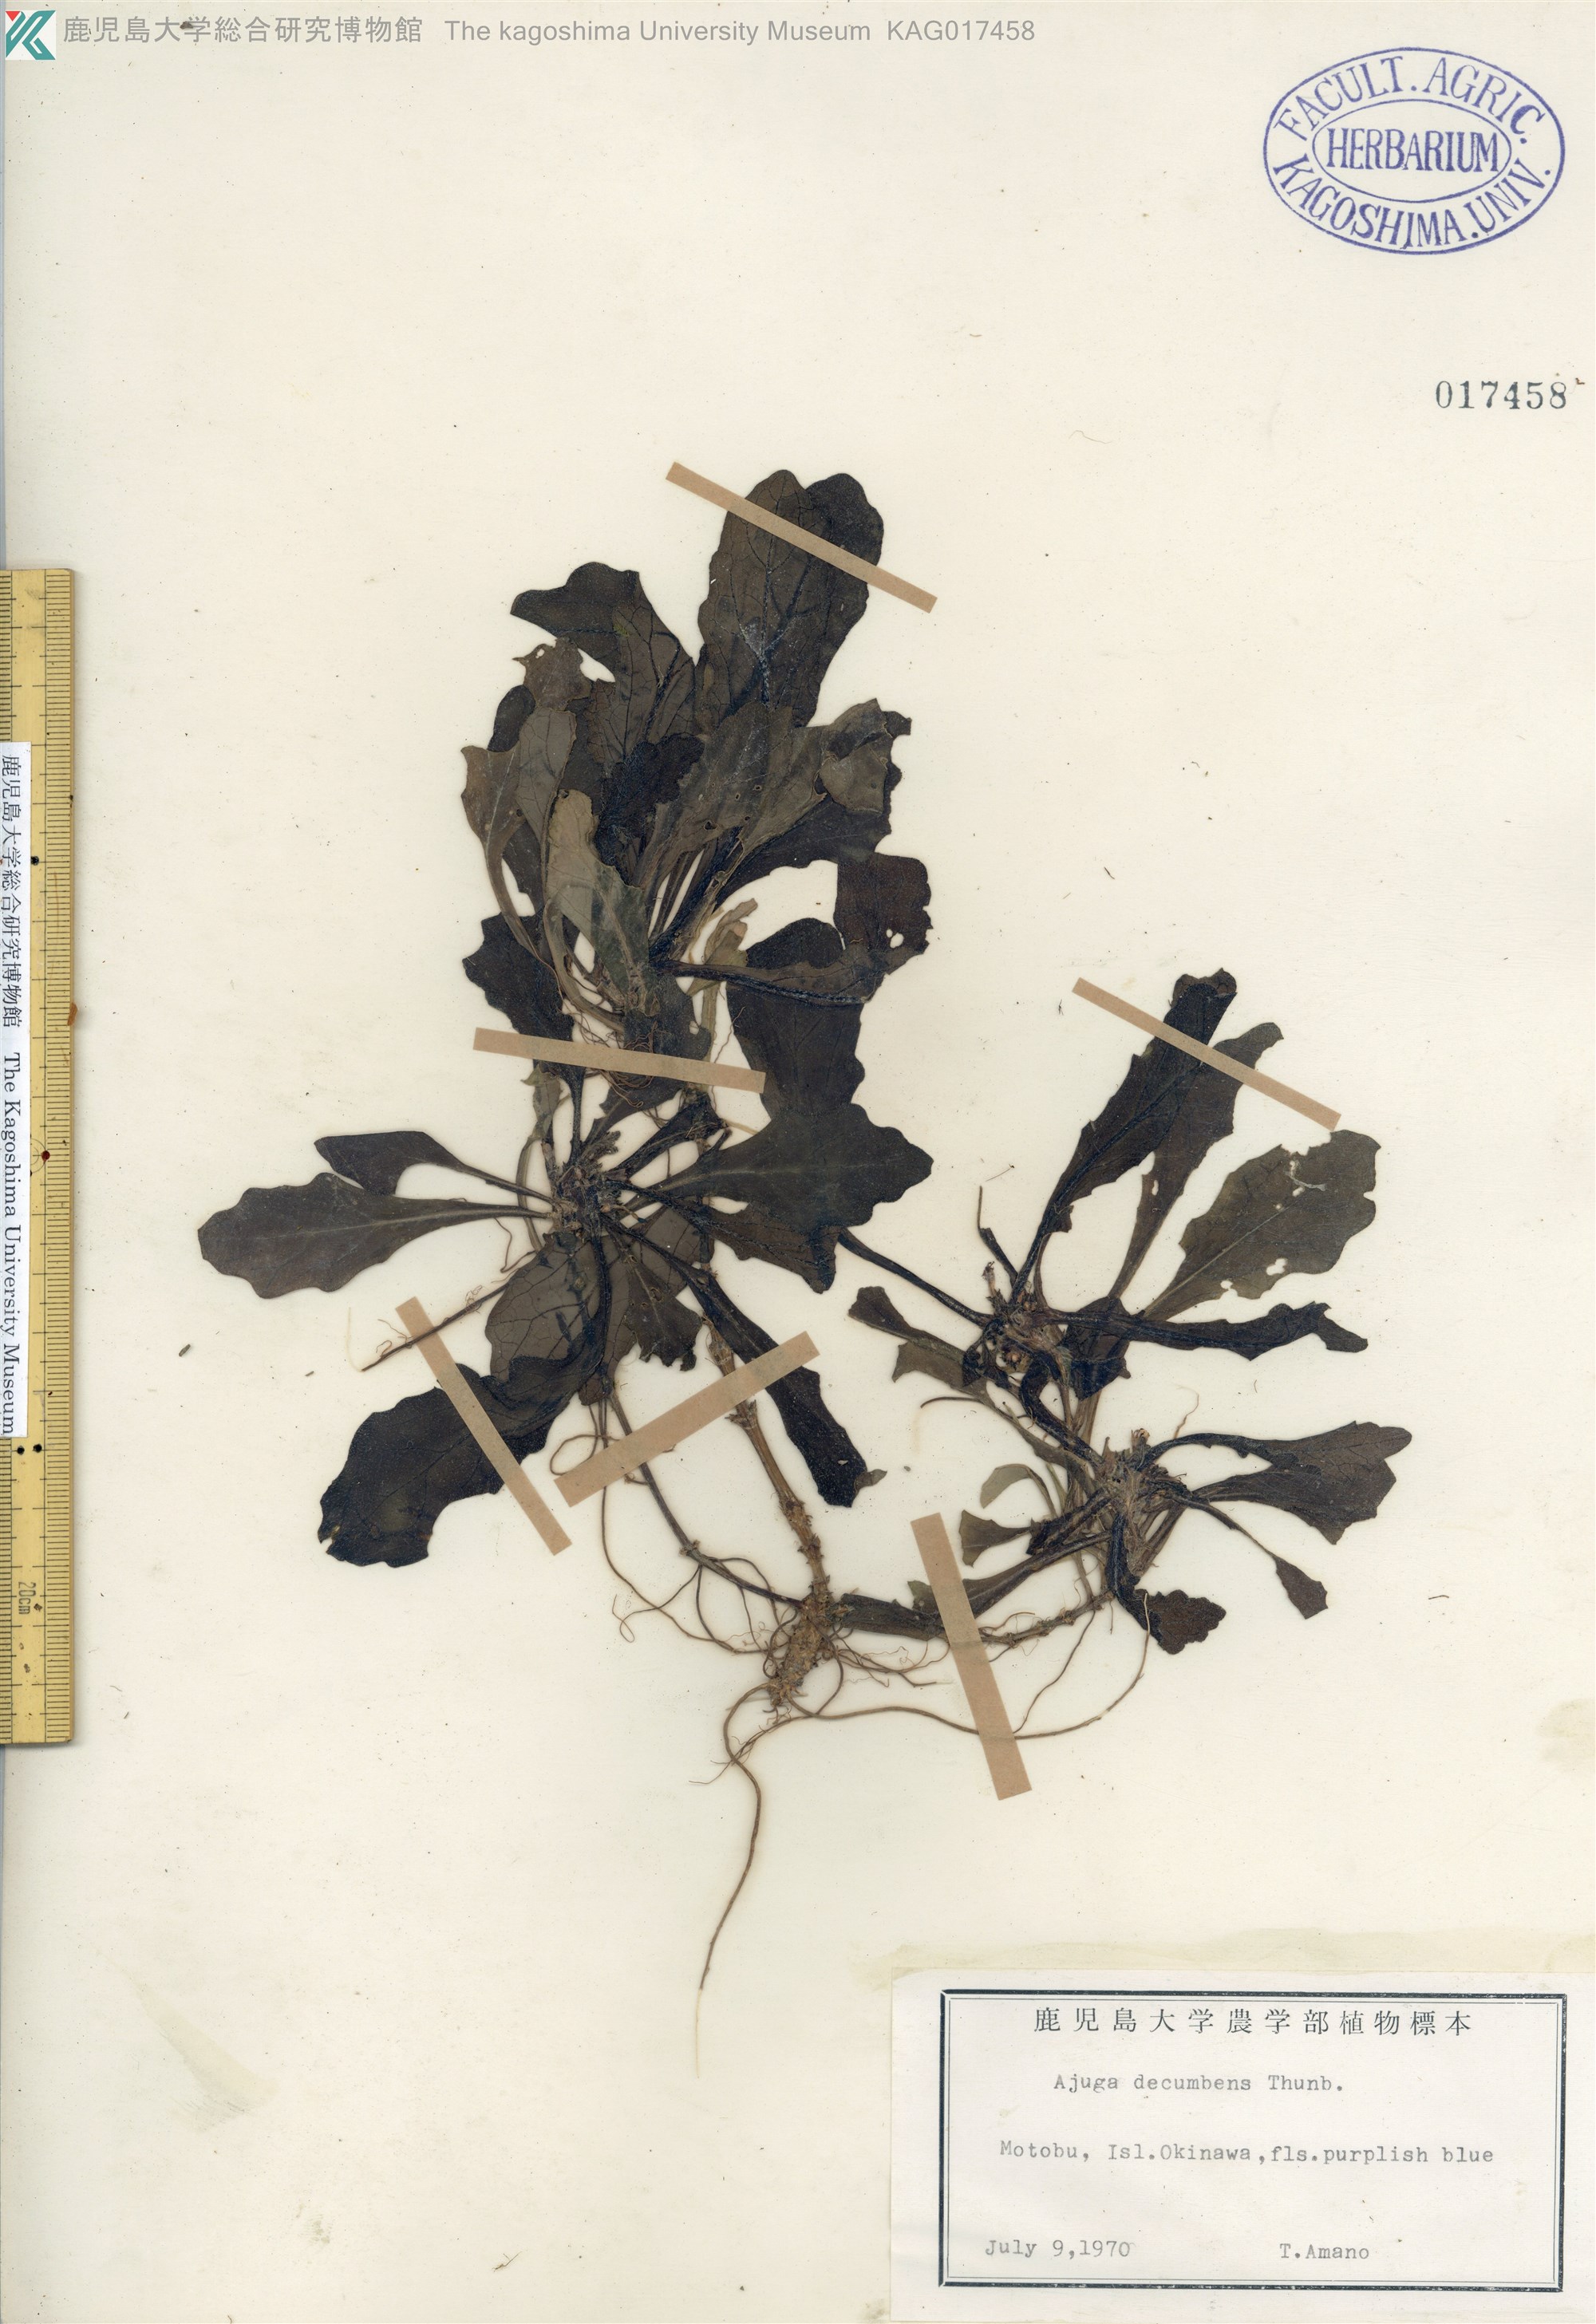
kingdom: Plantae
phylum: Tracheophyta
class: Magnoliopsida
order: Lamiales
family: Lamiaceae
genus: Ajuga
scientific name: Ajuga decumbens
